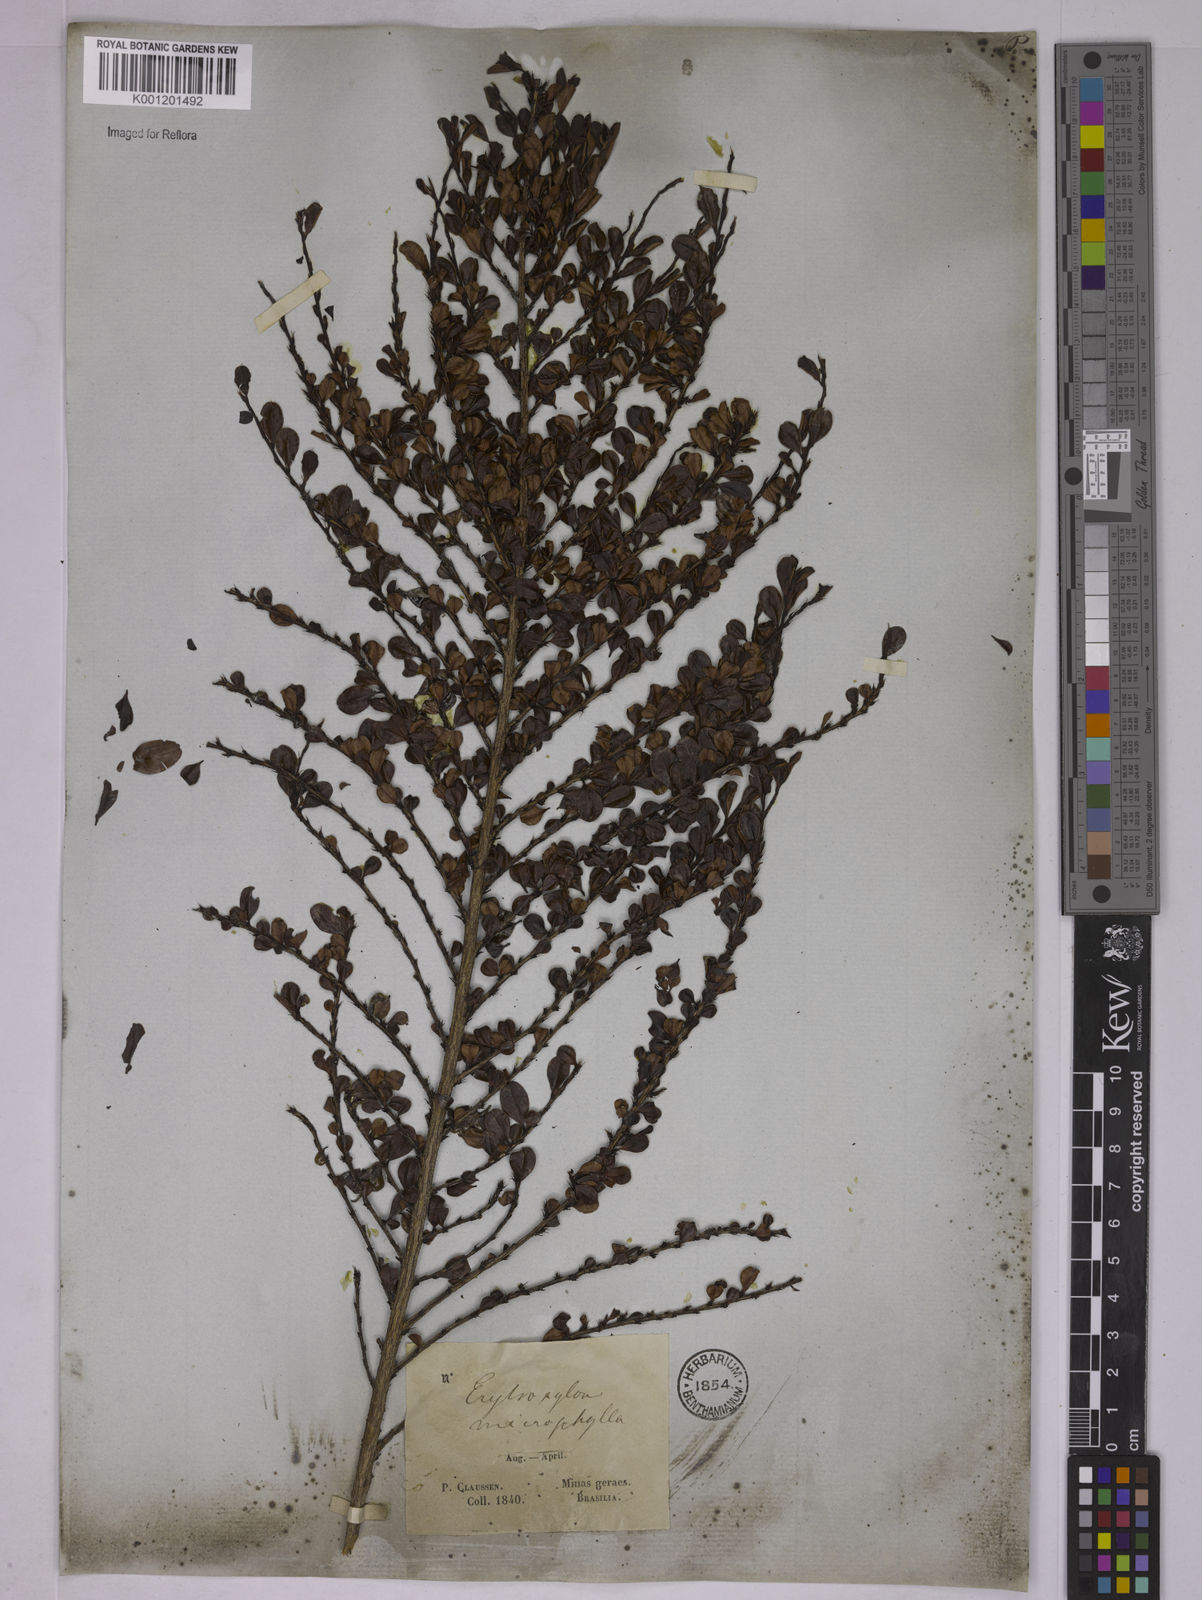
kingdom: Plantae
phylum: Tracheophyta
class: Magnoliopsida
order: Malpighiales
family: Erythroxylaceae
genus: Erythroxylum
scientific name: Erythroxylum
